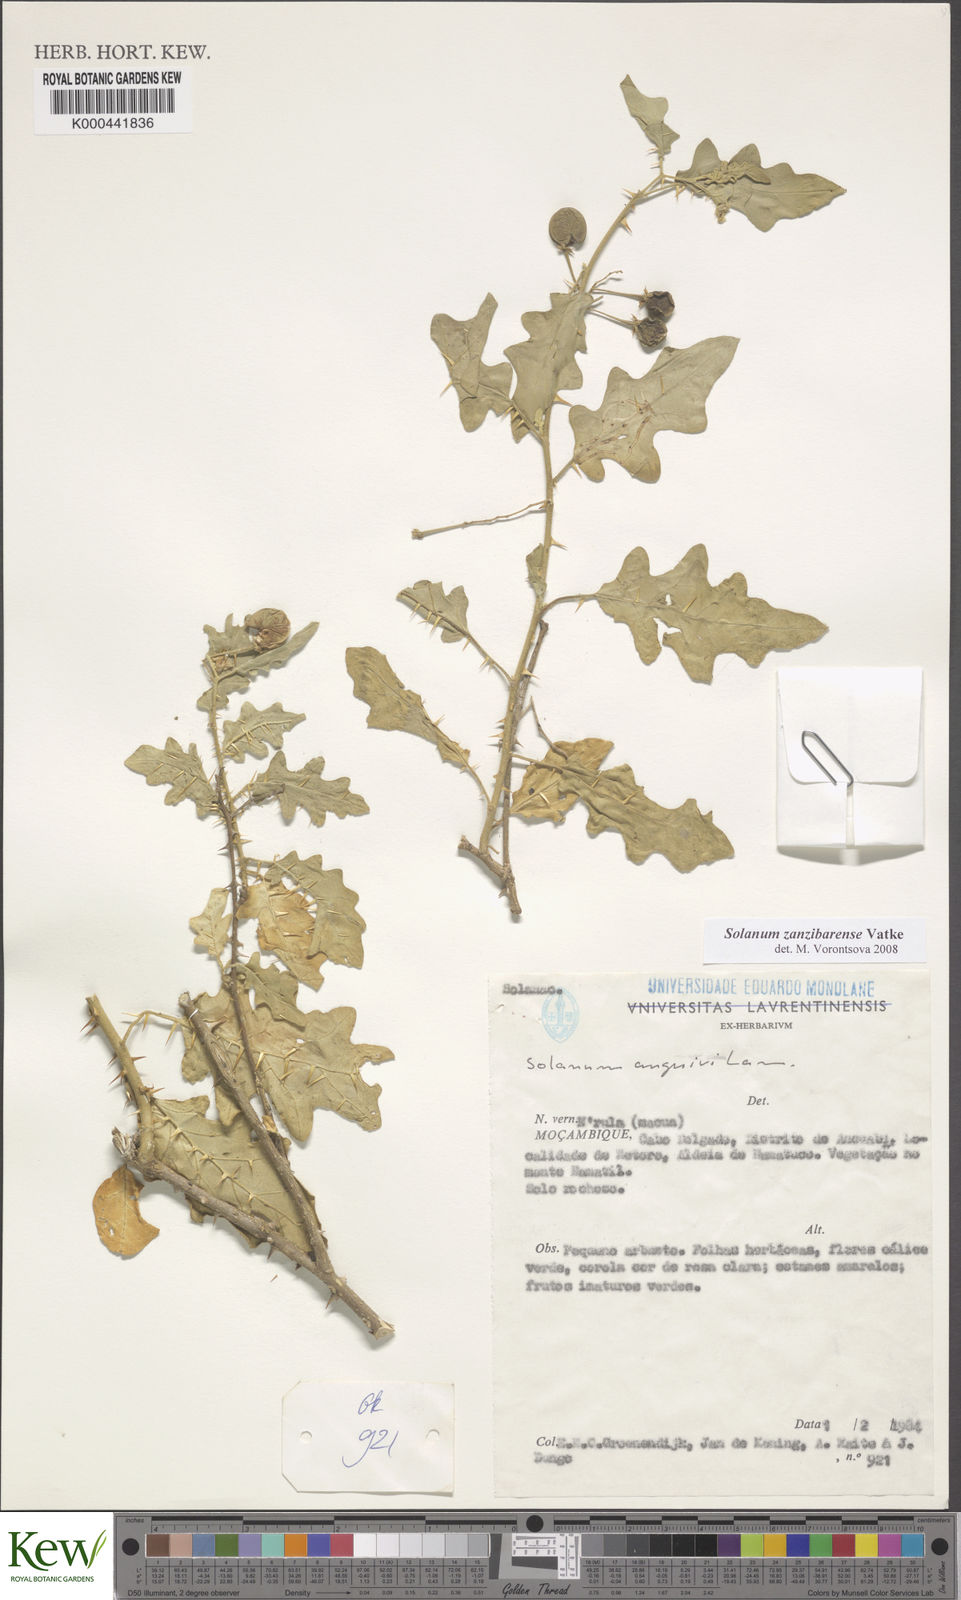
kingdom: Plantae
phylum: Tracheophyta
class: Magnoliopsida
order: Solanales
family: Solanaceae
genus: Solanum
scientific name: Solanum zanzibarense
